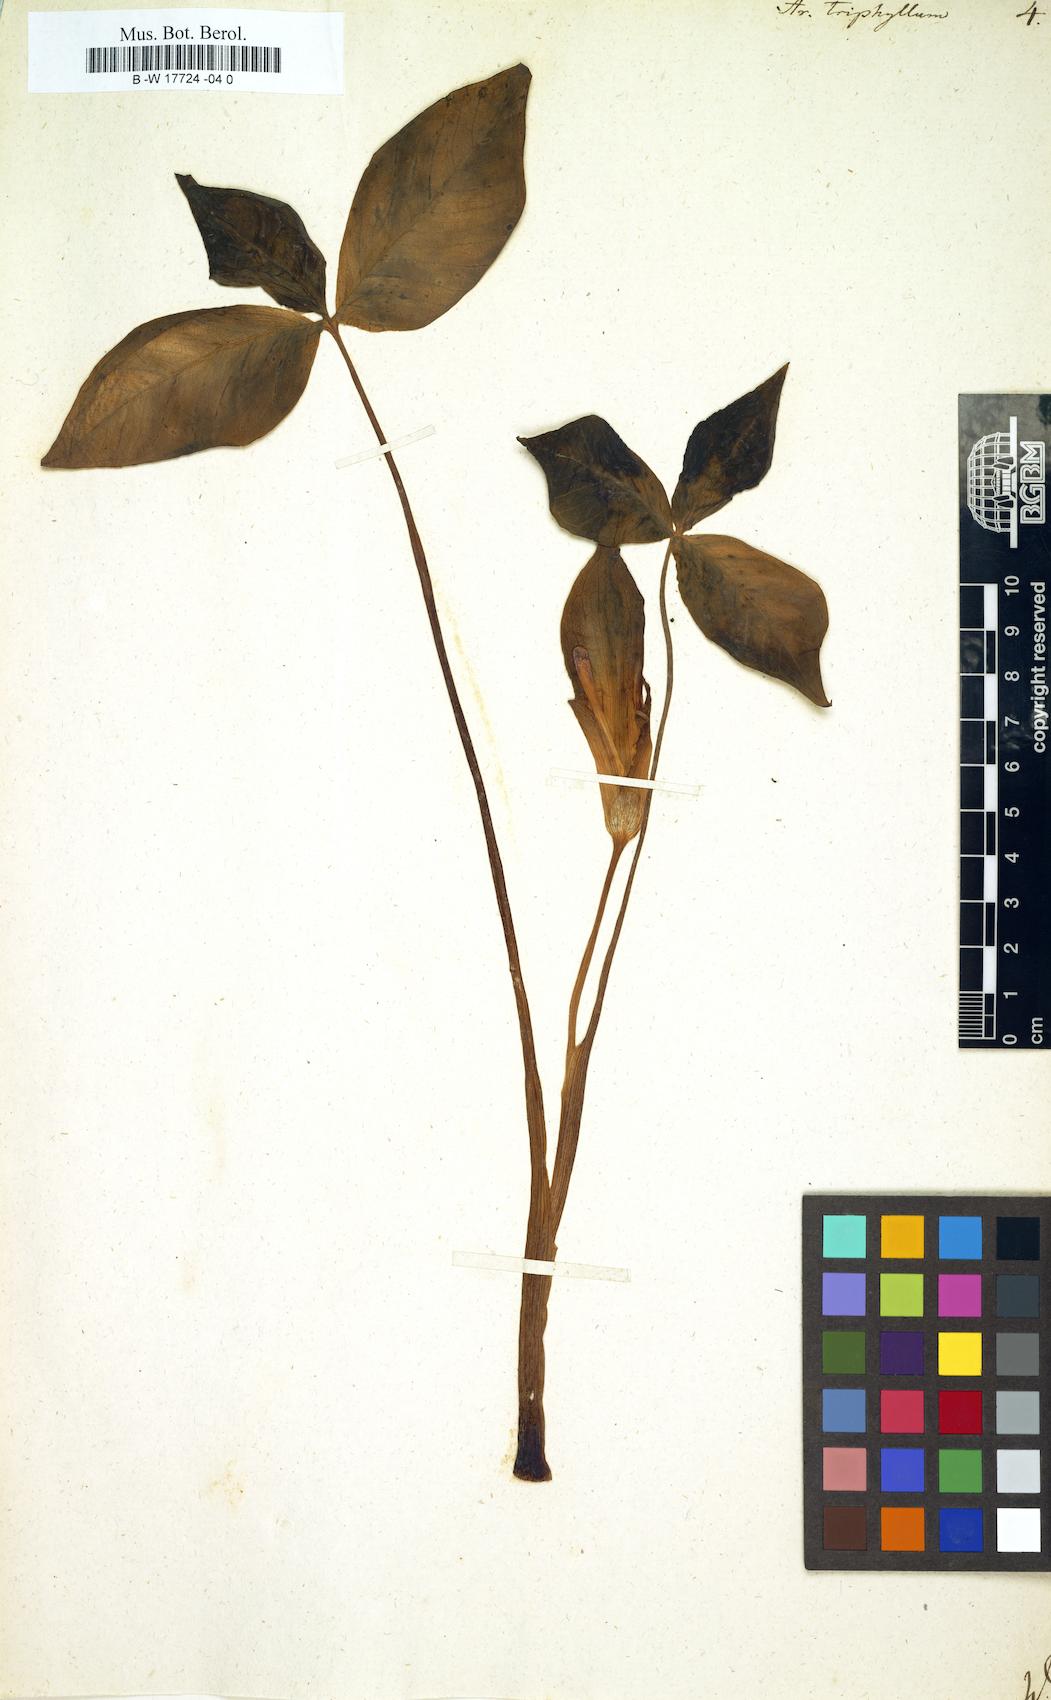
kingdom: Plantae
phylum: Tracheophyta
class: Liliopsida
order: Alismatales
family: Araceae
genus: Arisaema
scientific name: Arisaema triphyllum
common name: Jack-in-the-pulpit
